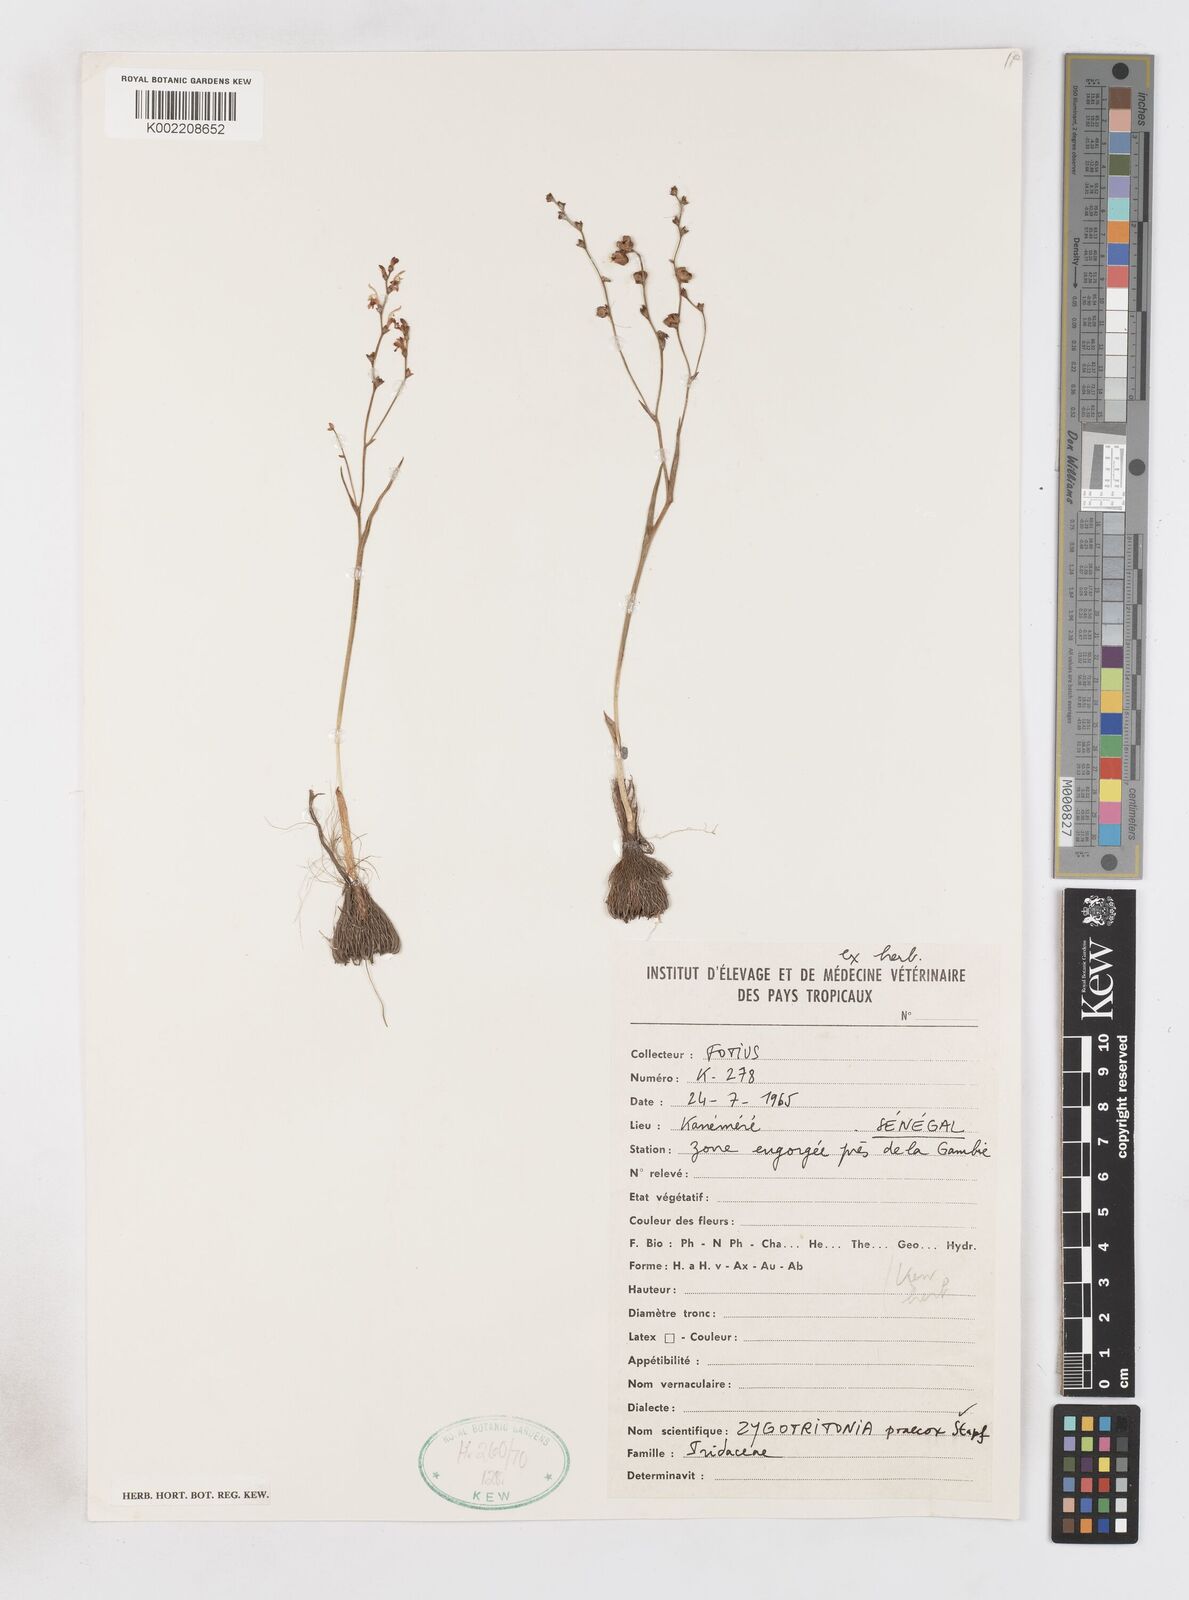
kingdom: Plantae
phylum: Tracheophyta
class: Liliopsida
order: Asparagales
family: Iridaceae
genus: Zygotritonia
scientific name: Zygotritonia praecox
